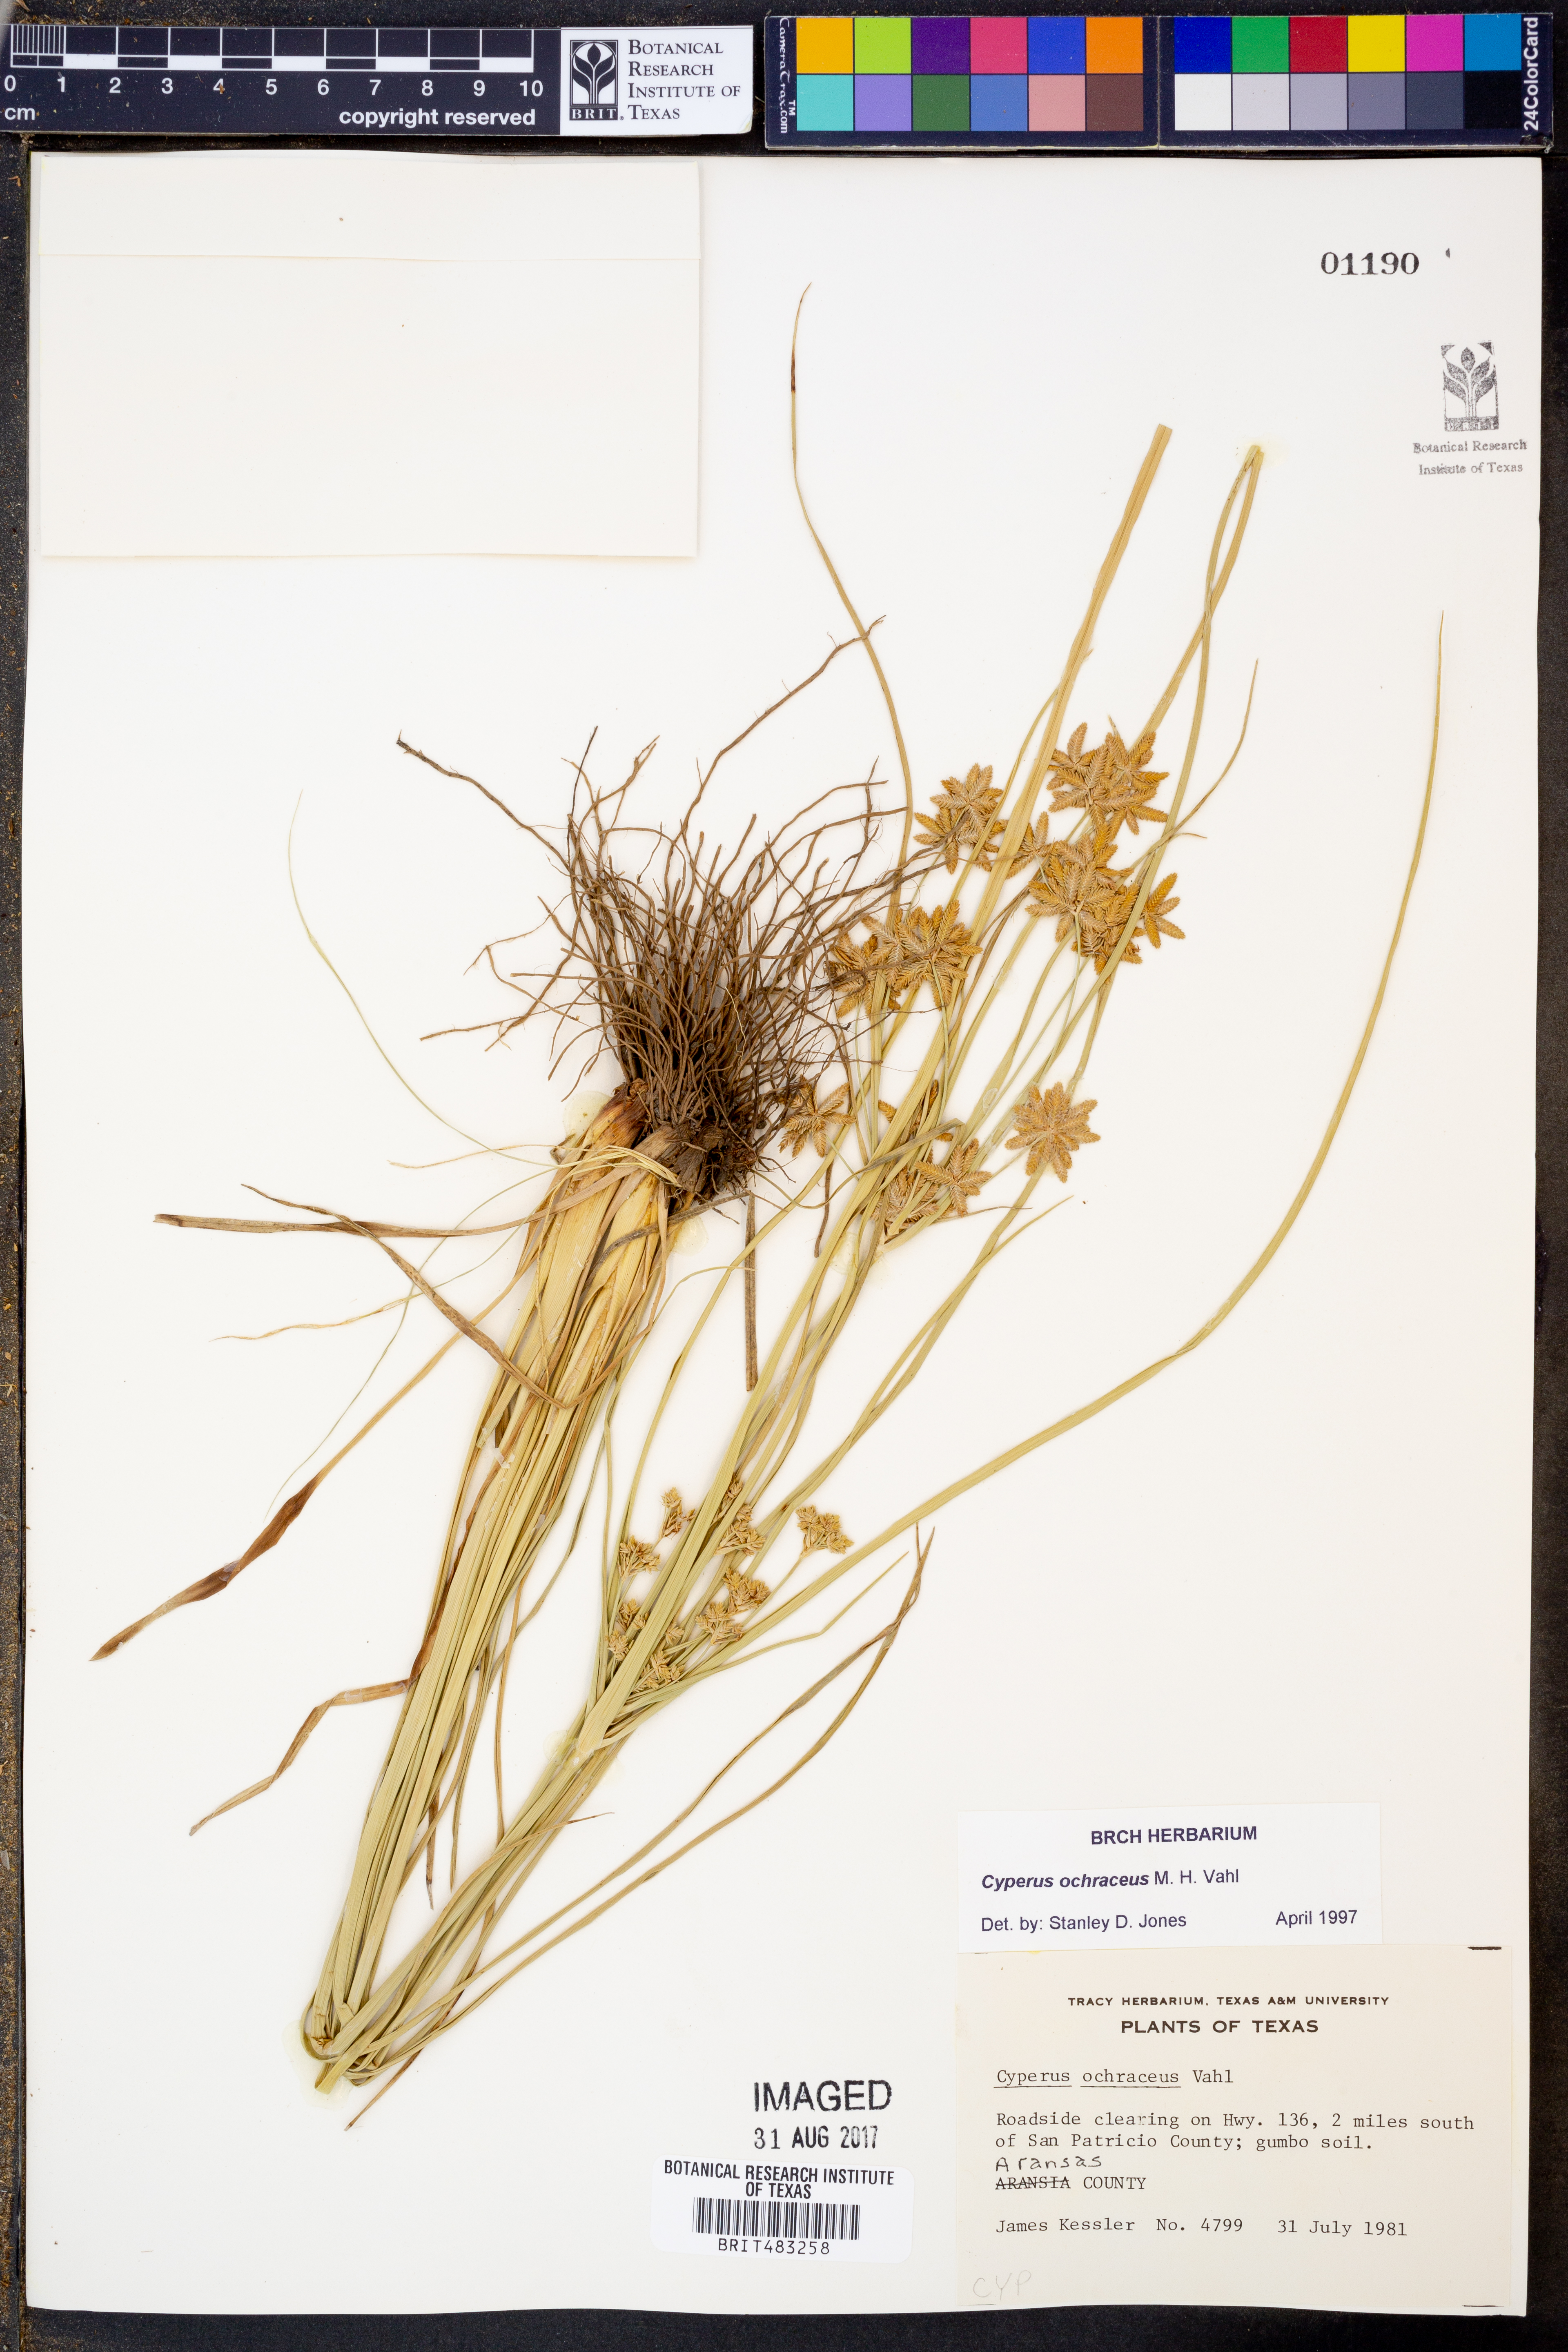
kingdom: Plantae
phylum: Tracheophyta
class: Liliopsida
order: Poales
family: Cyperaceae
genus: Cyperus
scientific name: Cyperus ochraceus
